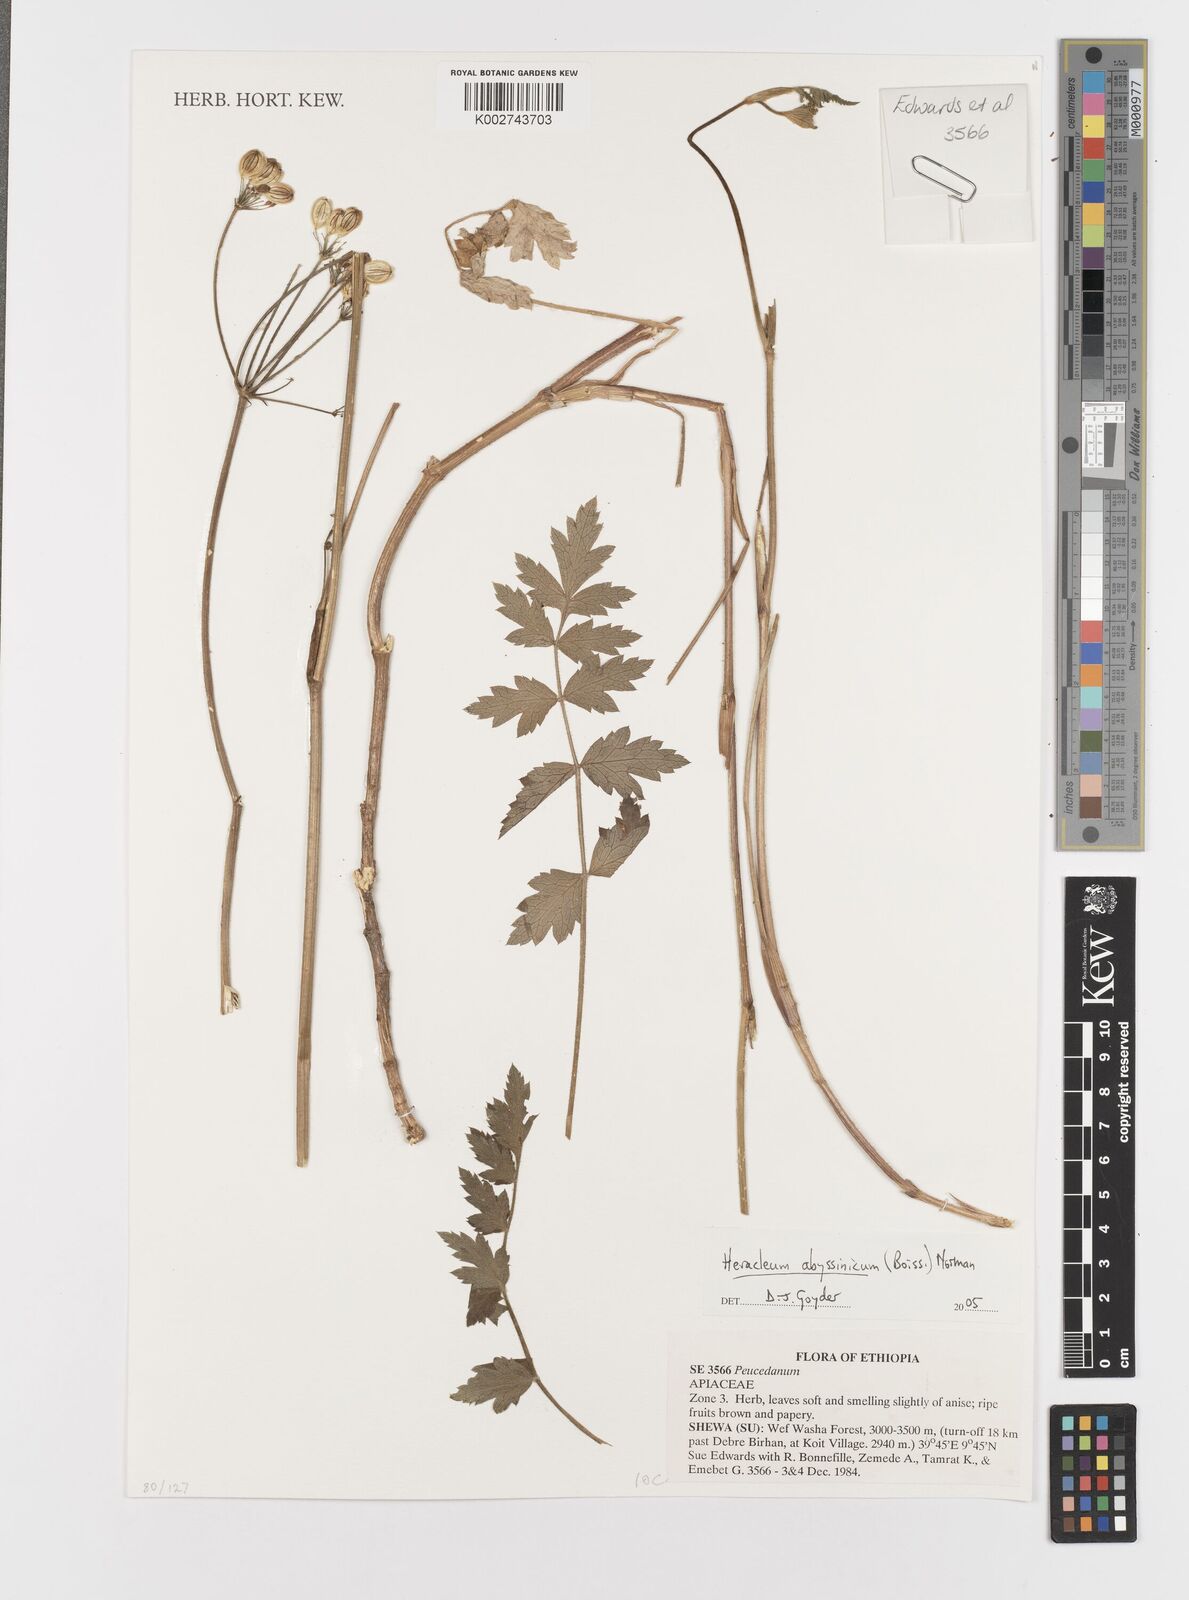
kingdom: Plantae
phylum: Tracheophyta
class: Magnoliopsida
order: Apiales
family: Apiaceae
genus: Heracleum
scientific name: Heracleum abyssinicum
